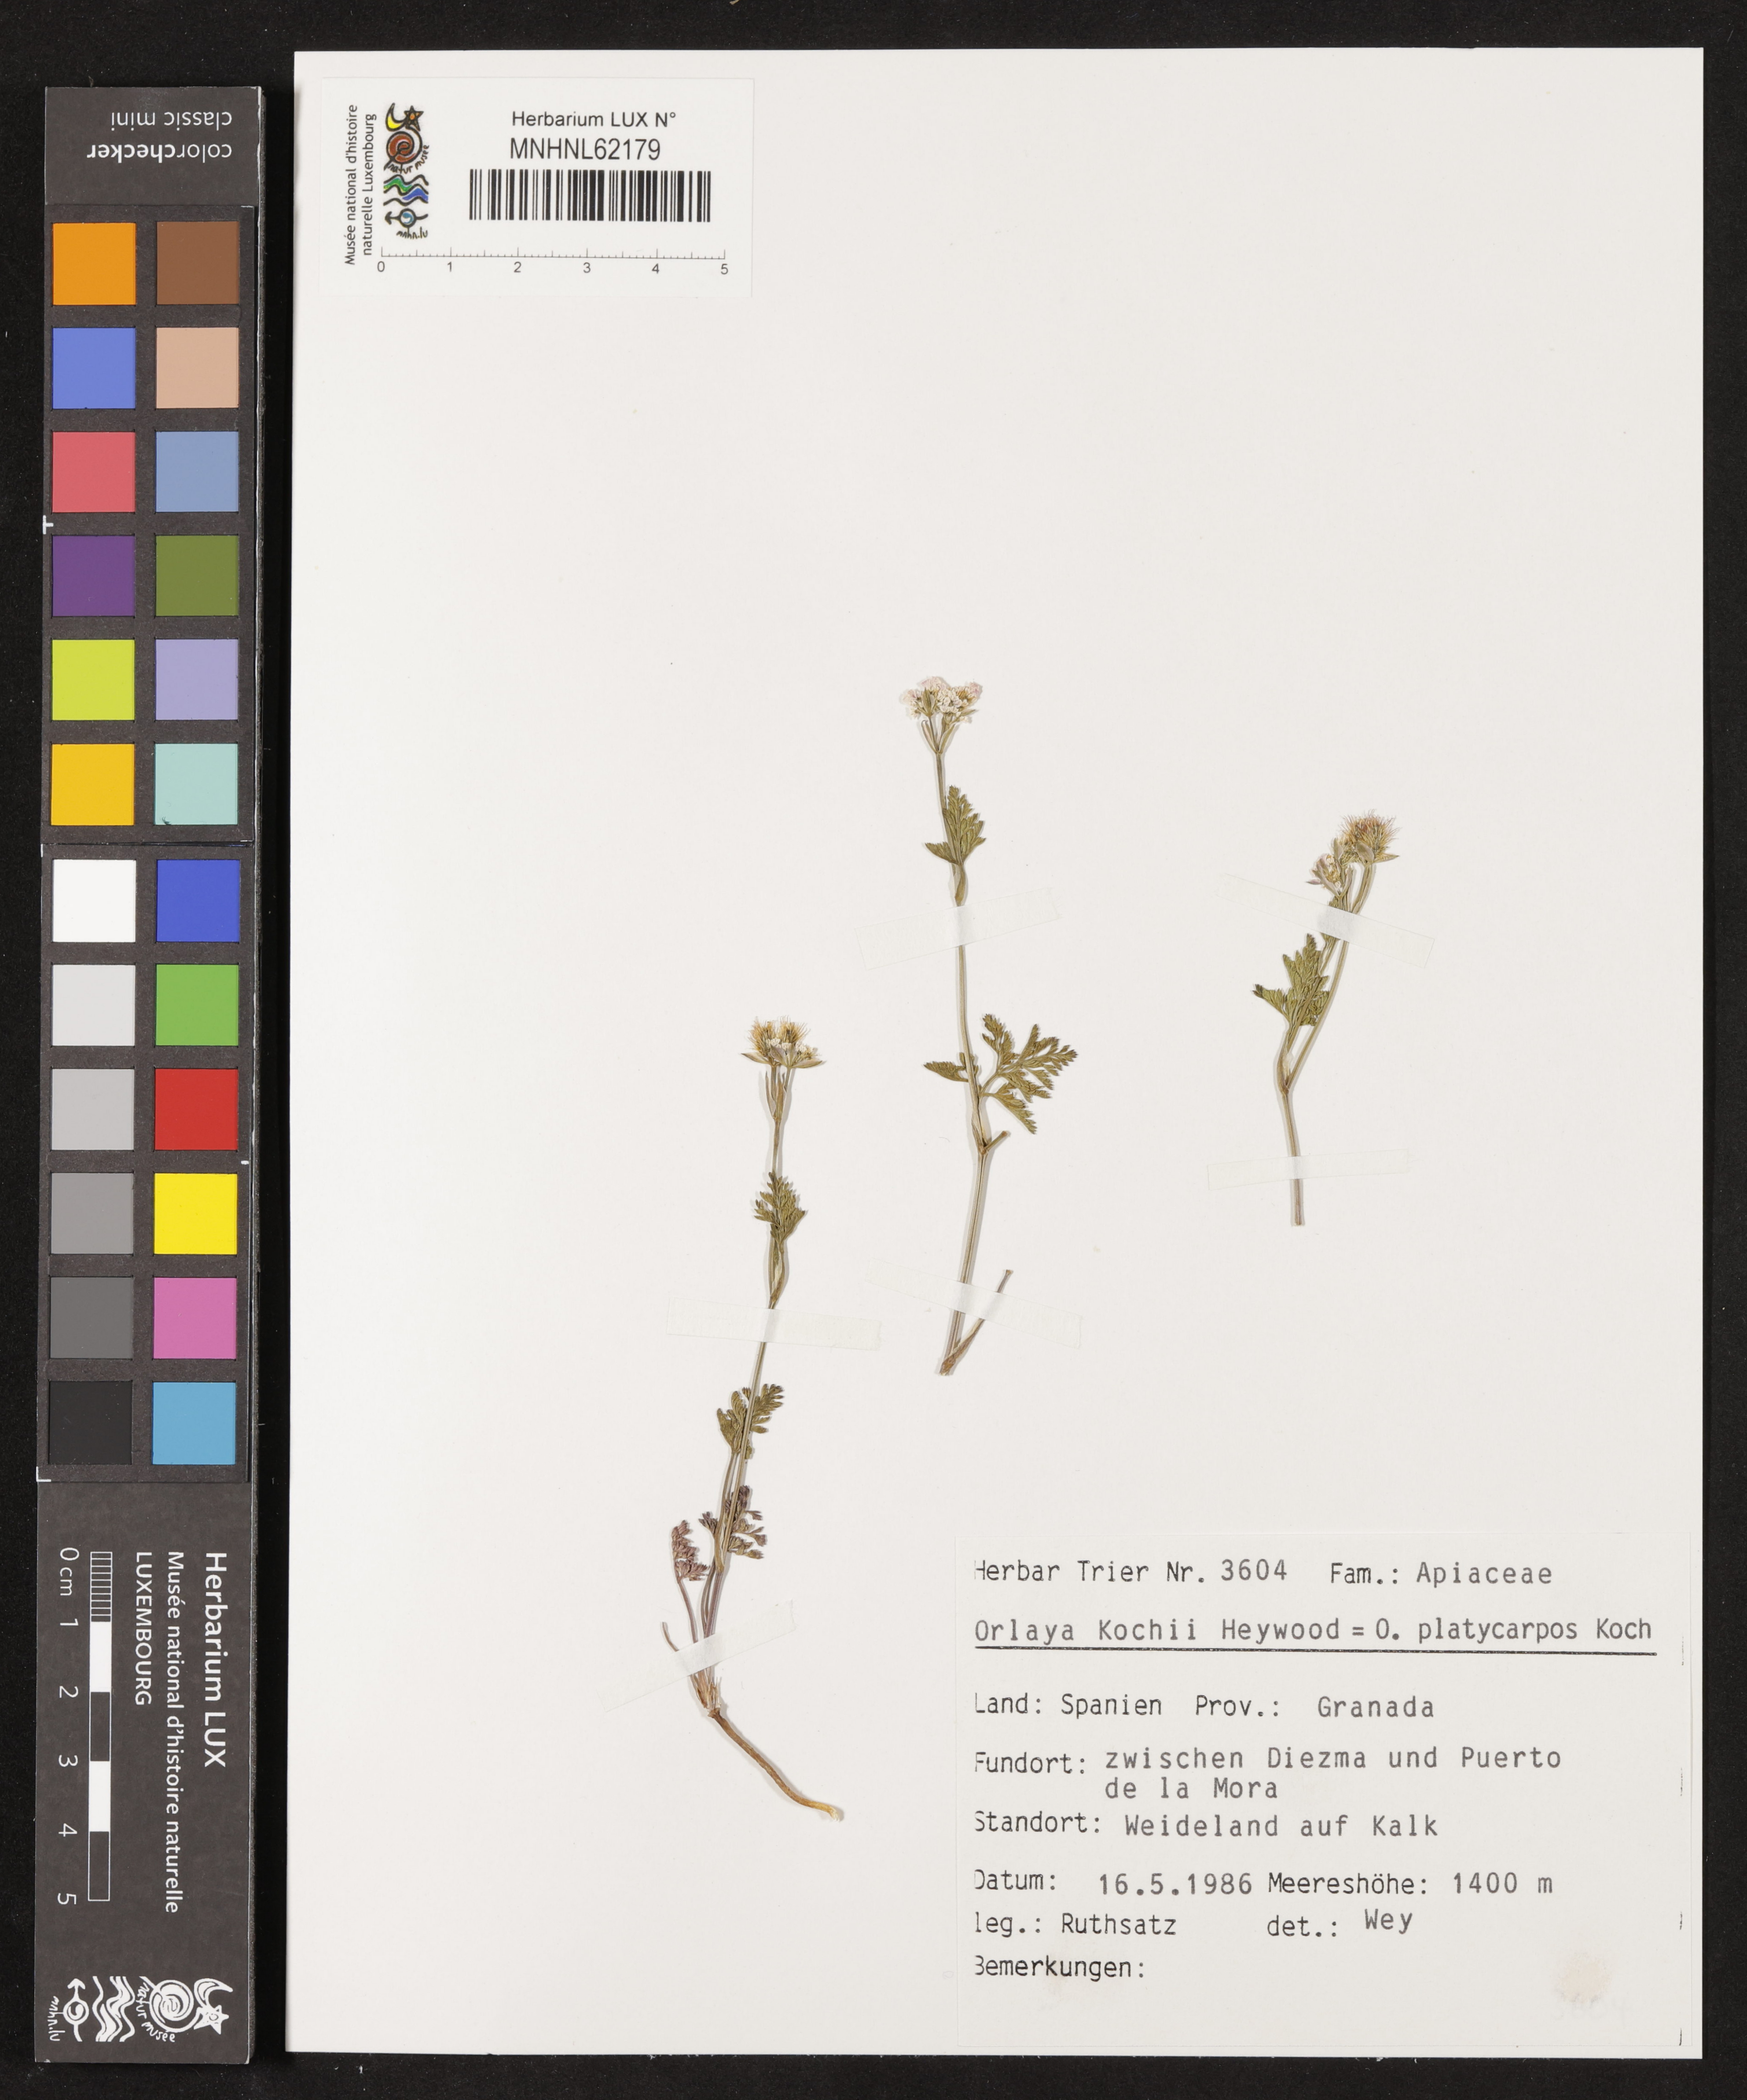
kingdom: Plantae
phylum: Tracheophyta
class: Magnoliopsida
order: Apiales
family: Apiaceae
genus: Orlaya
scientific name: Orlaya daucoides
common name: Flat-fruit orlaya
